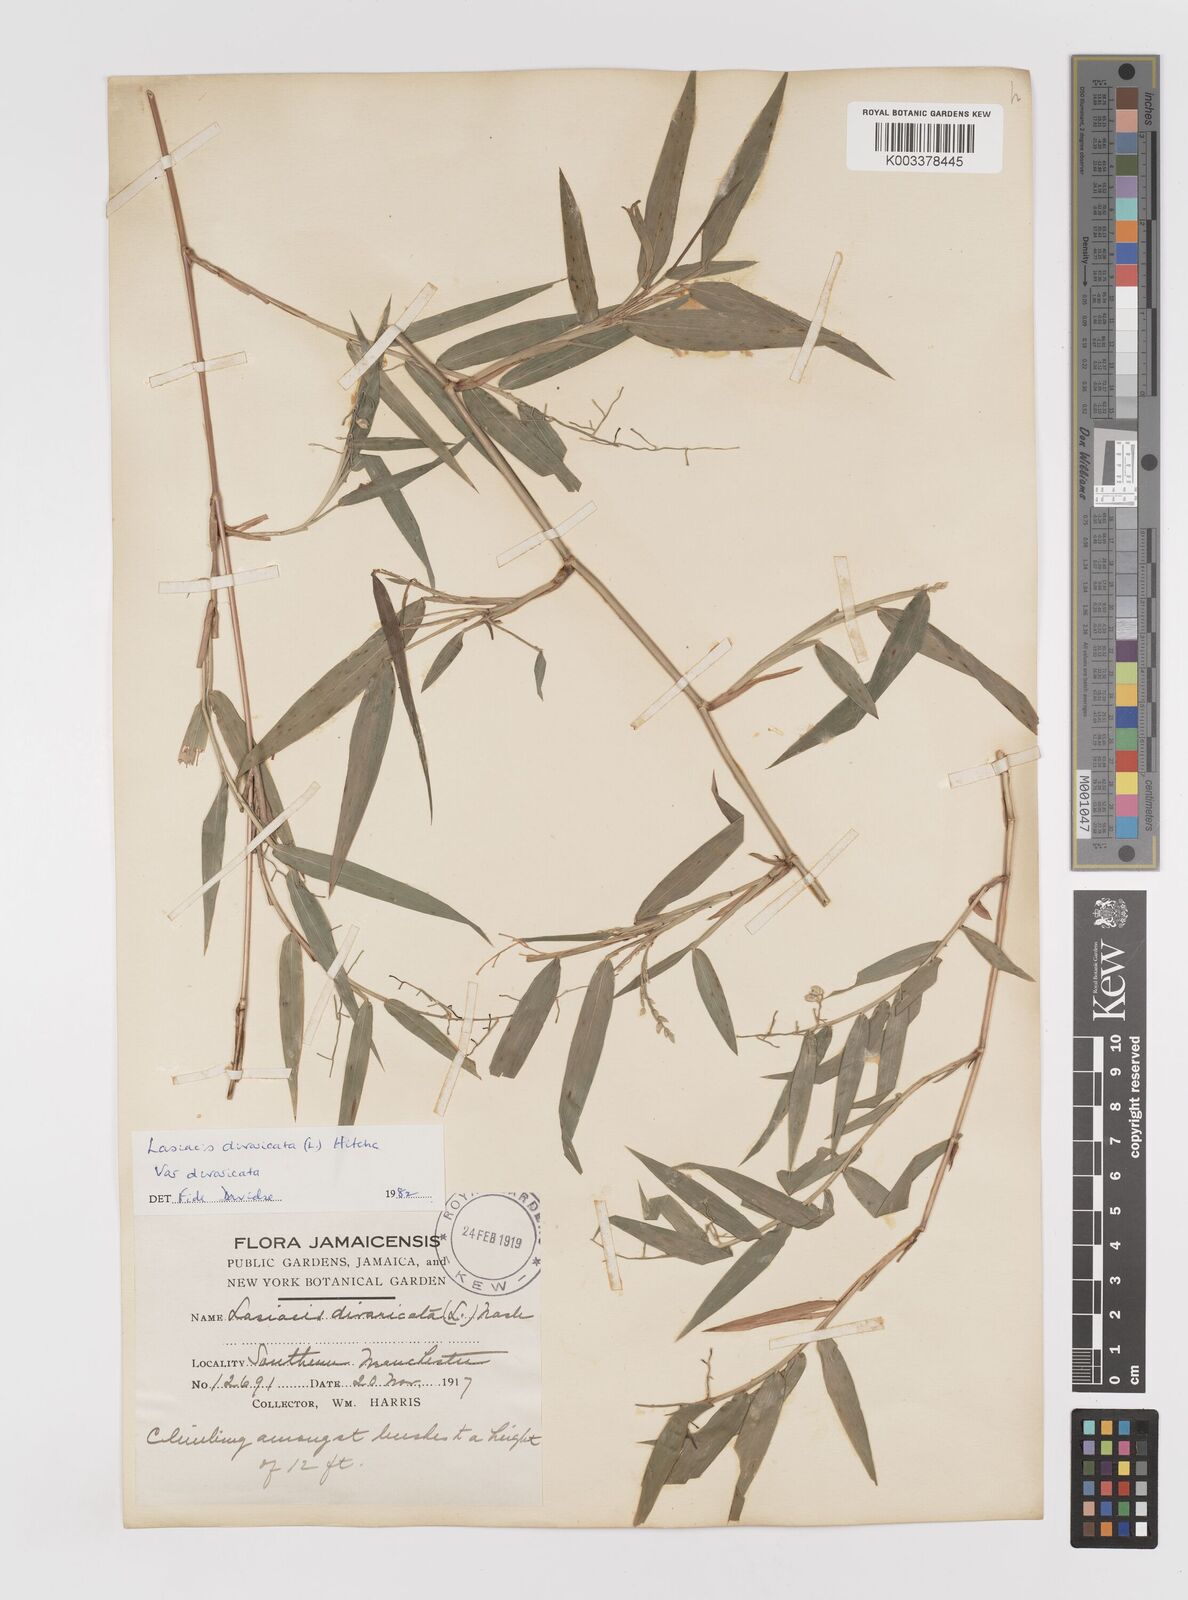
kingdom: Plantae
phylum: Tracheophyta
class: Liliopsida
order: Poales
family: Poaceae
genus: Lasiacis
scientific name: Lasiacis divaricata
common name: Smallcane
